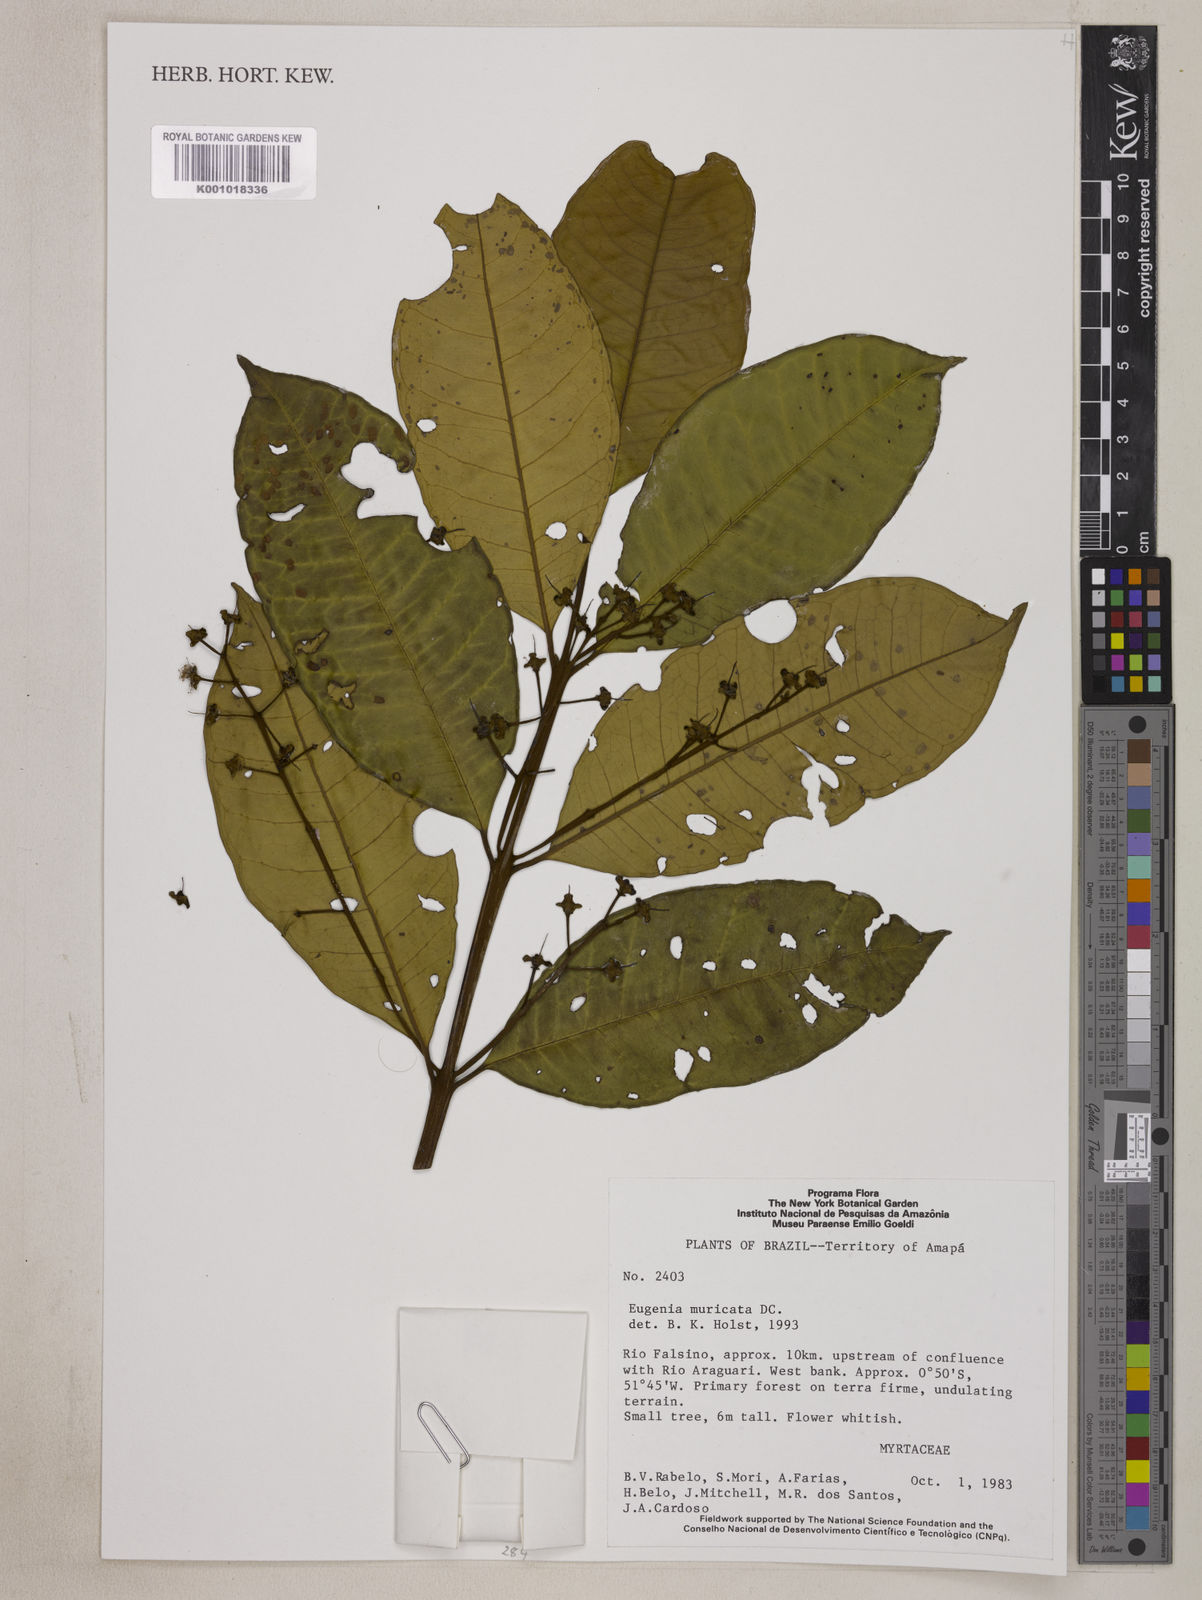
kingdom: Plantae
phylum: Tracheophyta
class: Magnoliopsida
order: Myrtales
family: Myrtaceae
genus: Eugenia
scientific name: Eugenia muricata
